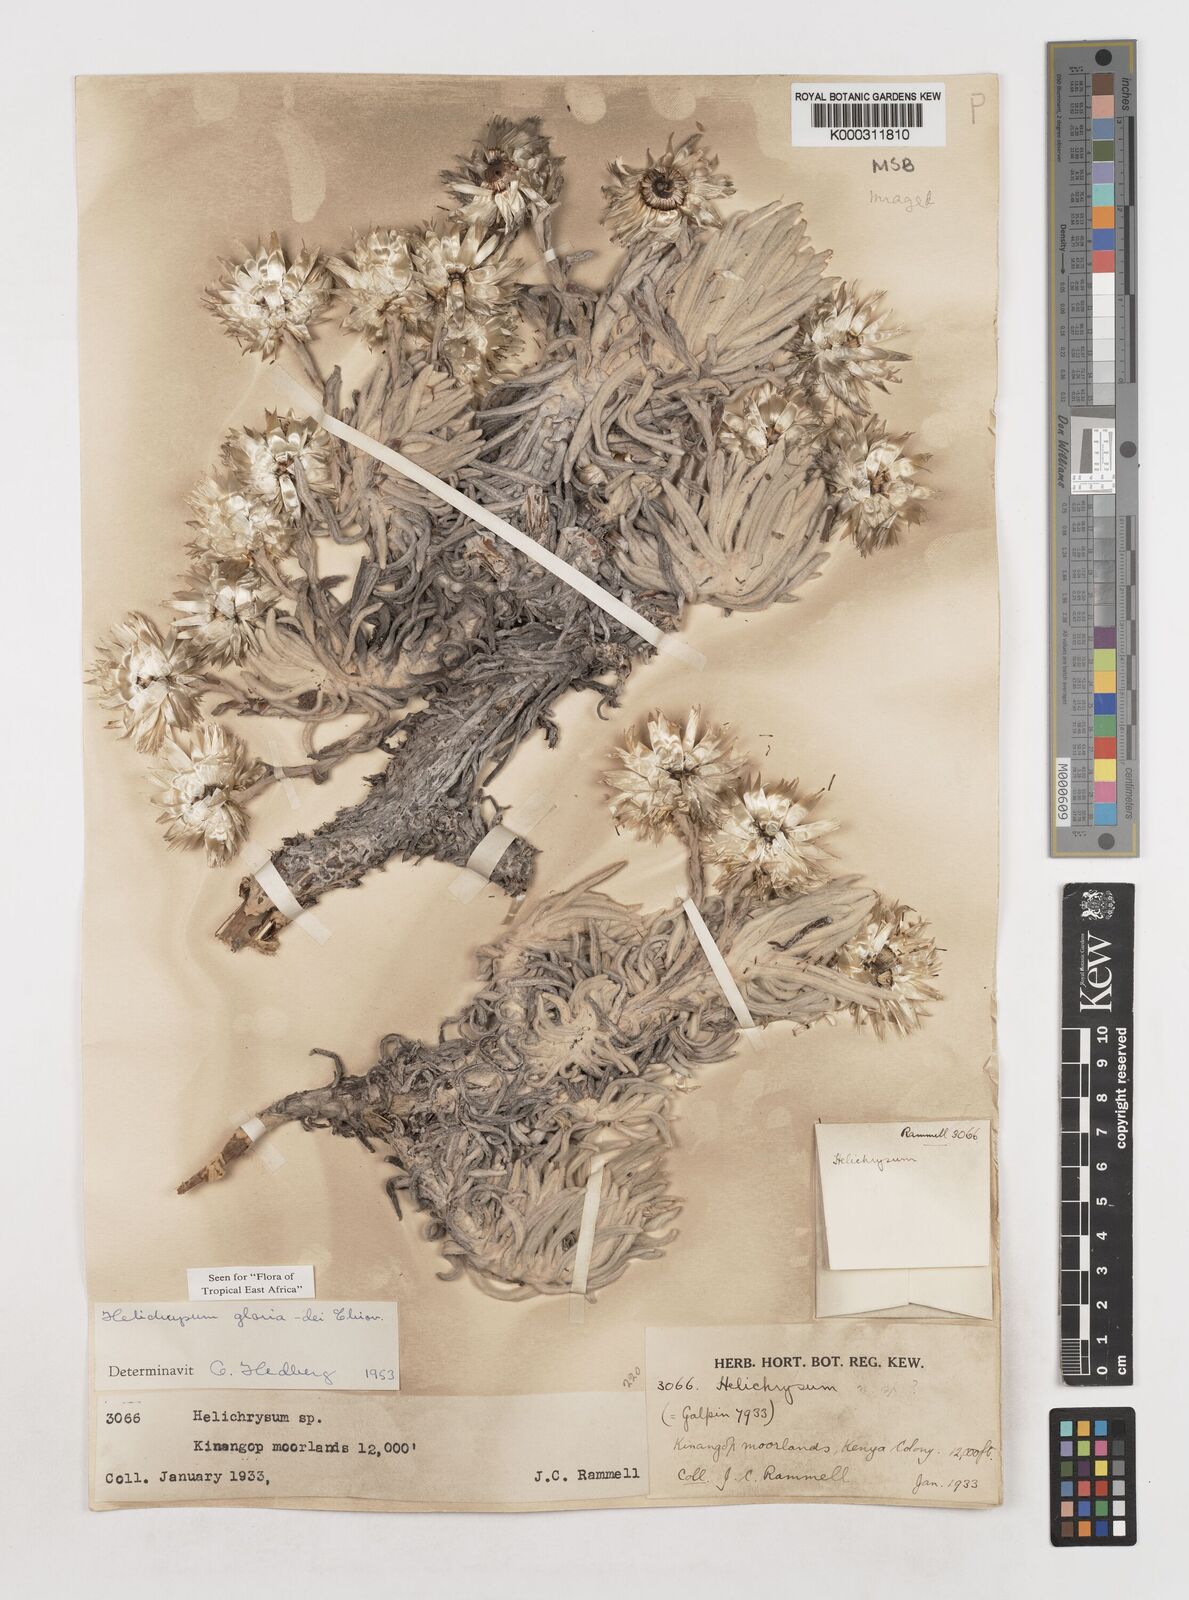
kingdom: Plantae
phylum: Tracheophyta
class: Magnoliopsida
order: Asterales
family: Asteraceae
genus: Helichrysum
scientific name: Helichrysum gloria-dei
